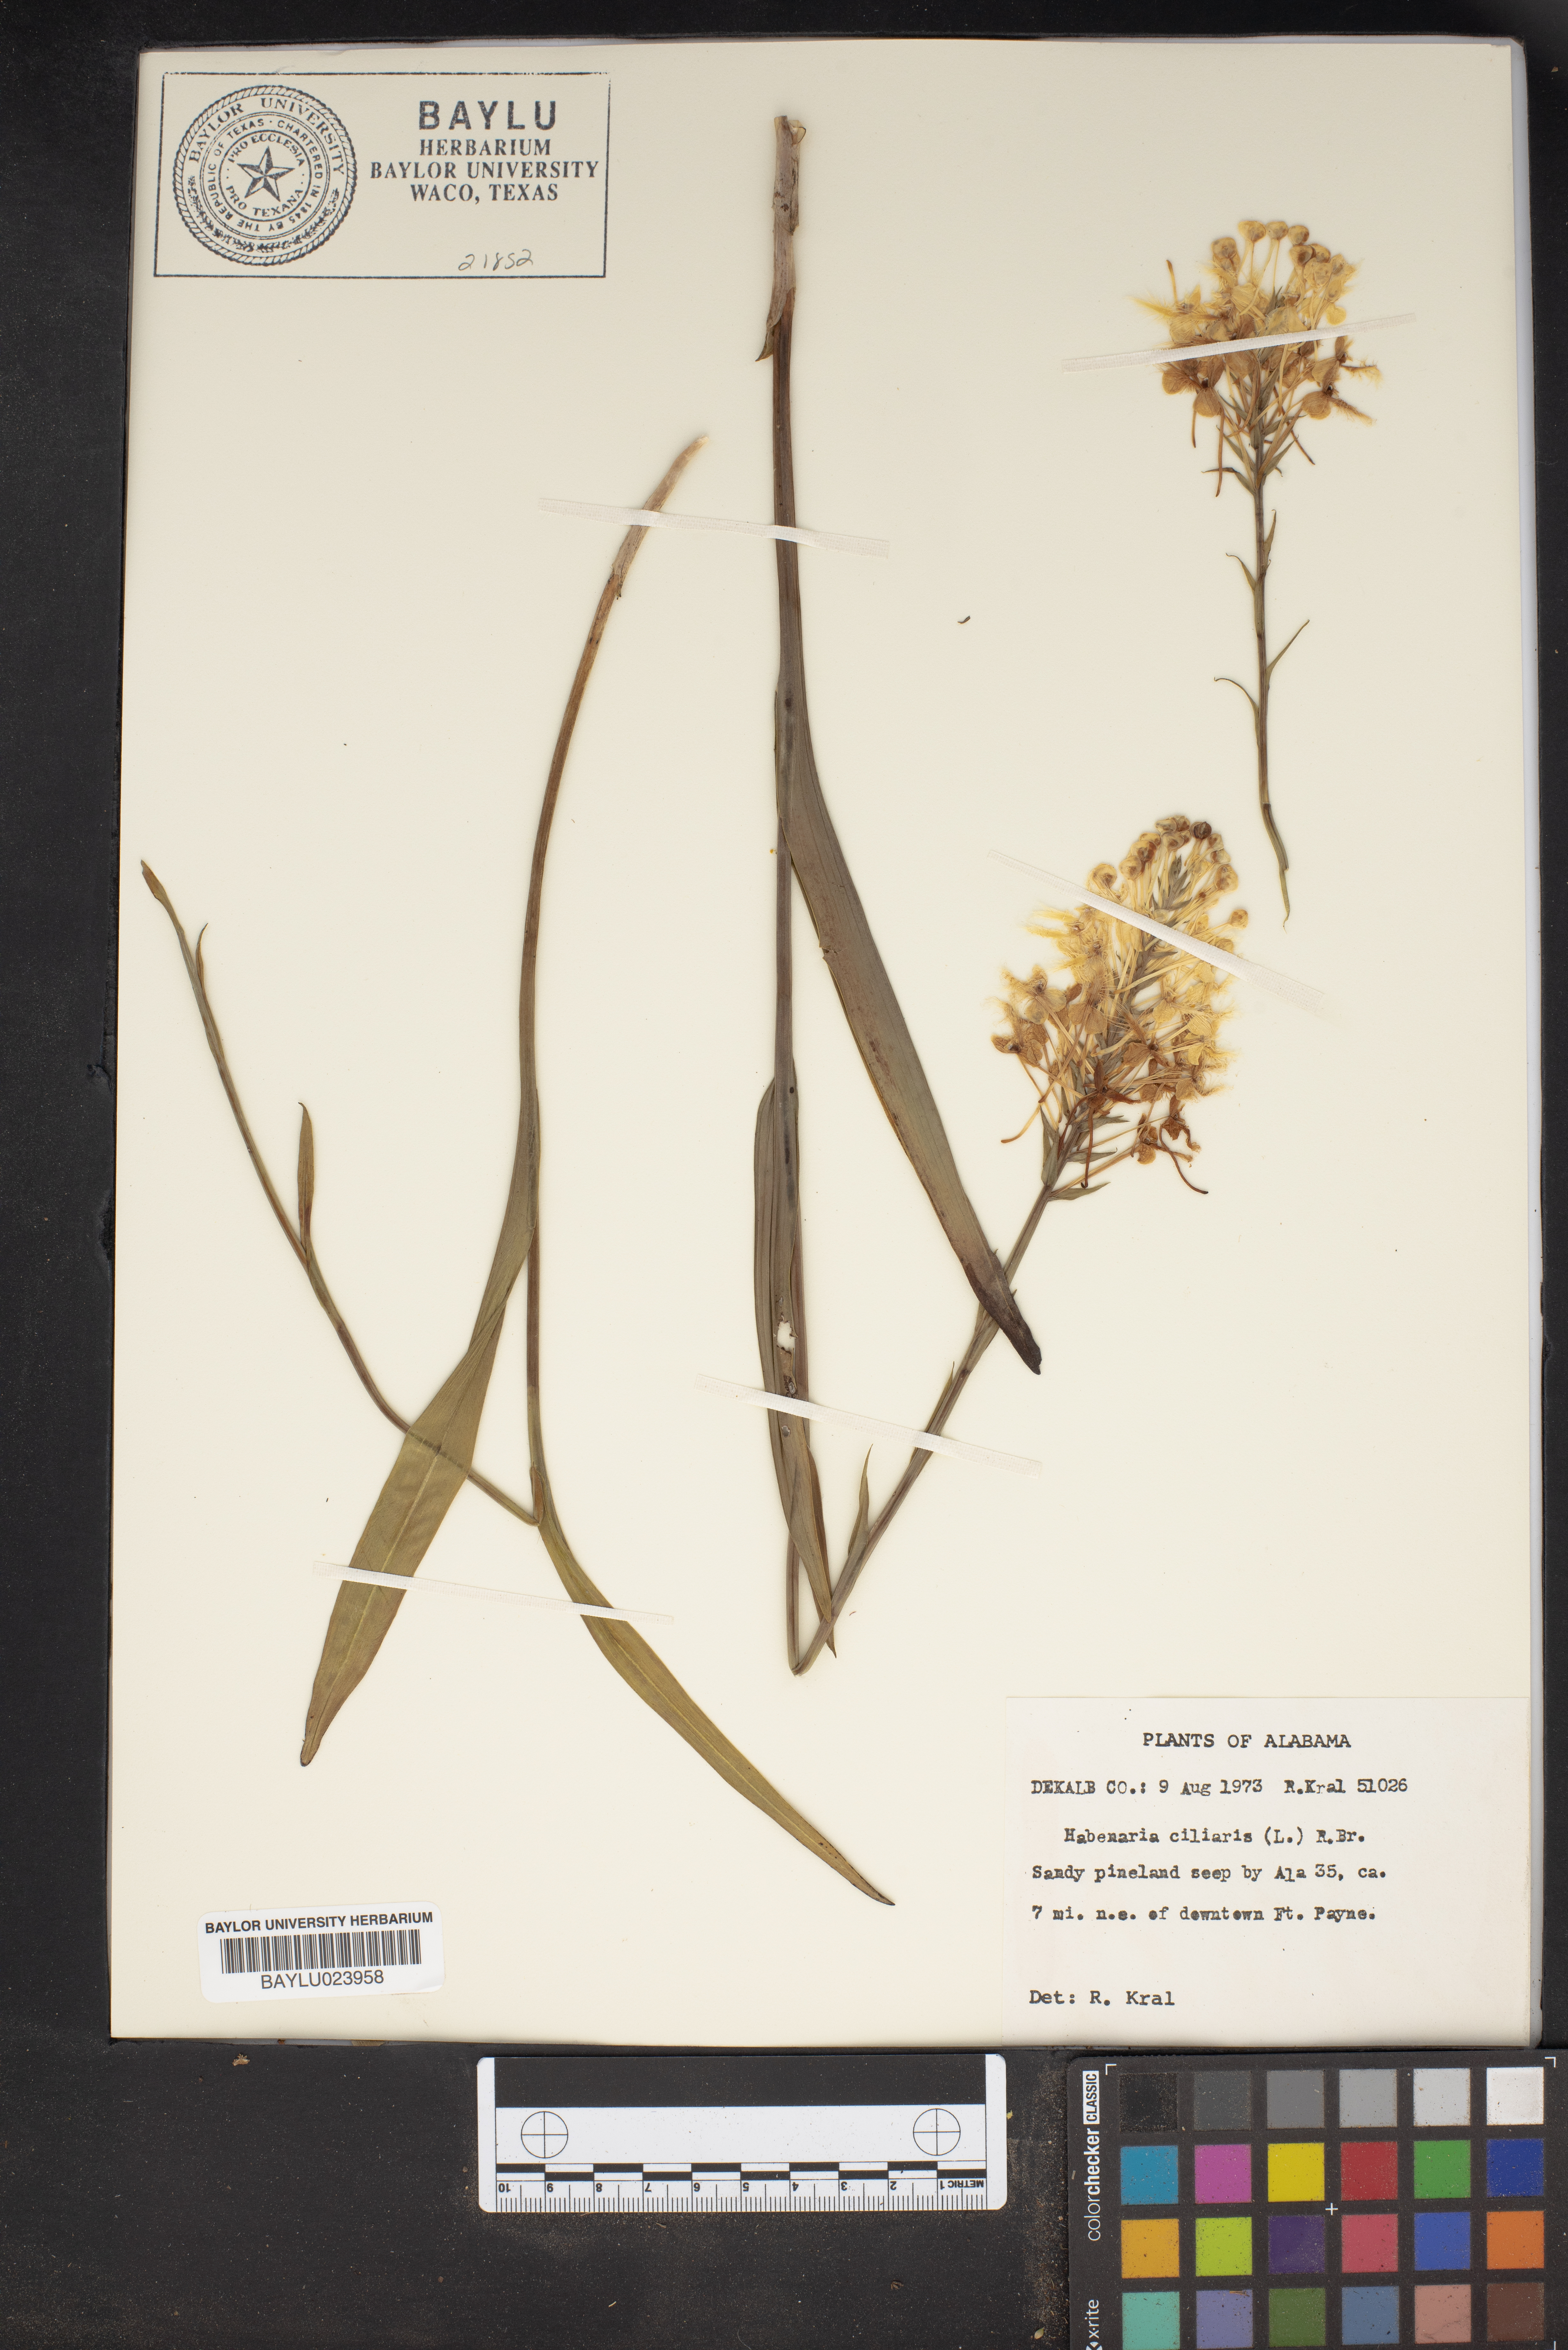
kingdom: Plantae
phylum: Tracheophyta
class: Liliopsida
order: Asparagales
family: Orchidaceae
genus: Platanthera
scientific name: Platanthera ciliaris
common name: Yellow fringed orchid
